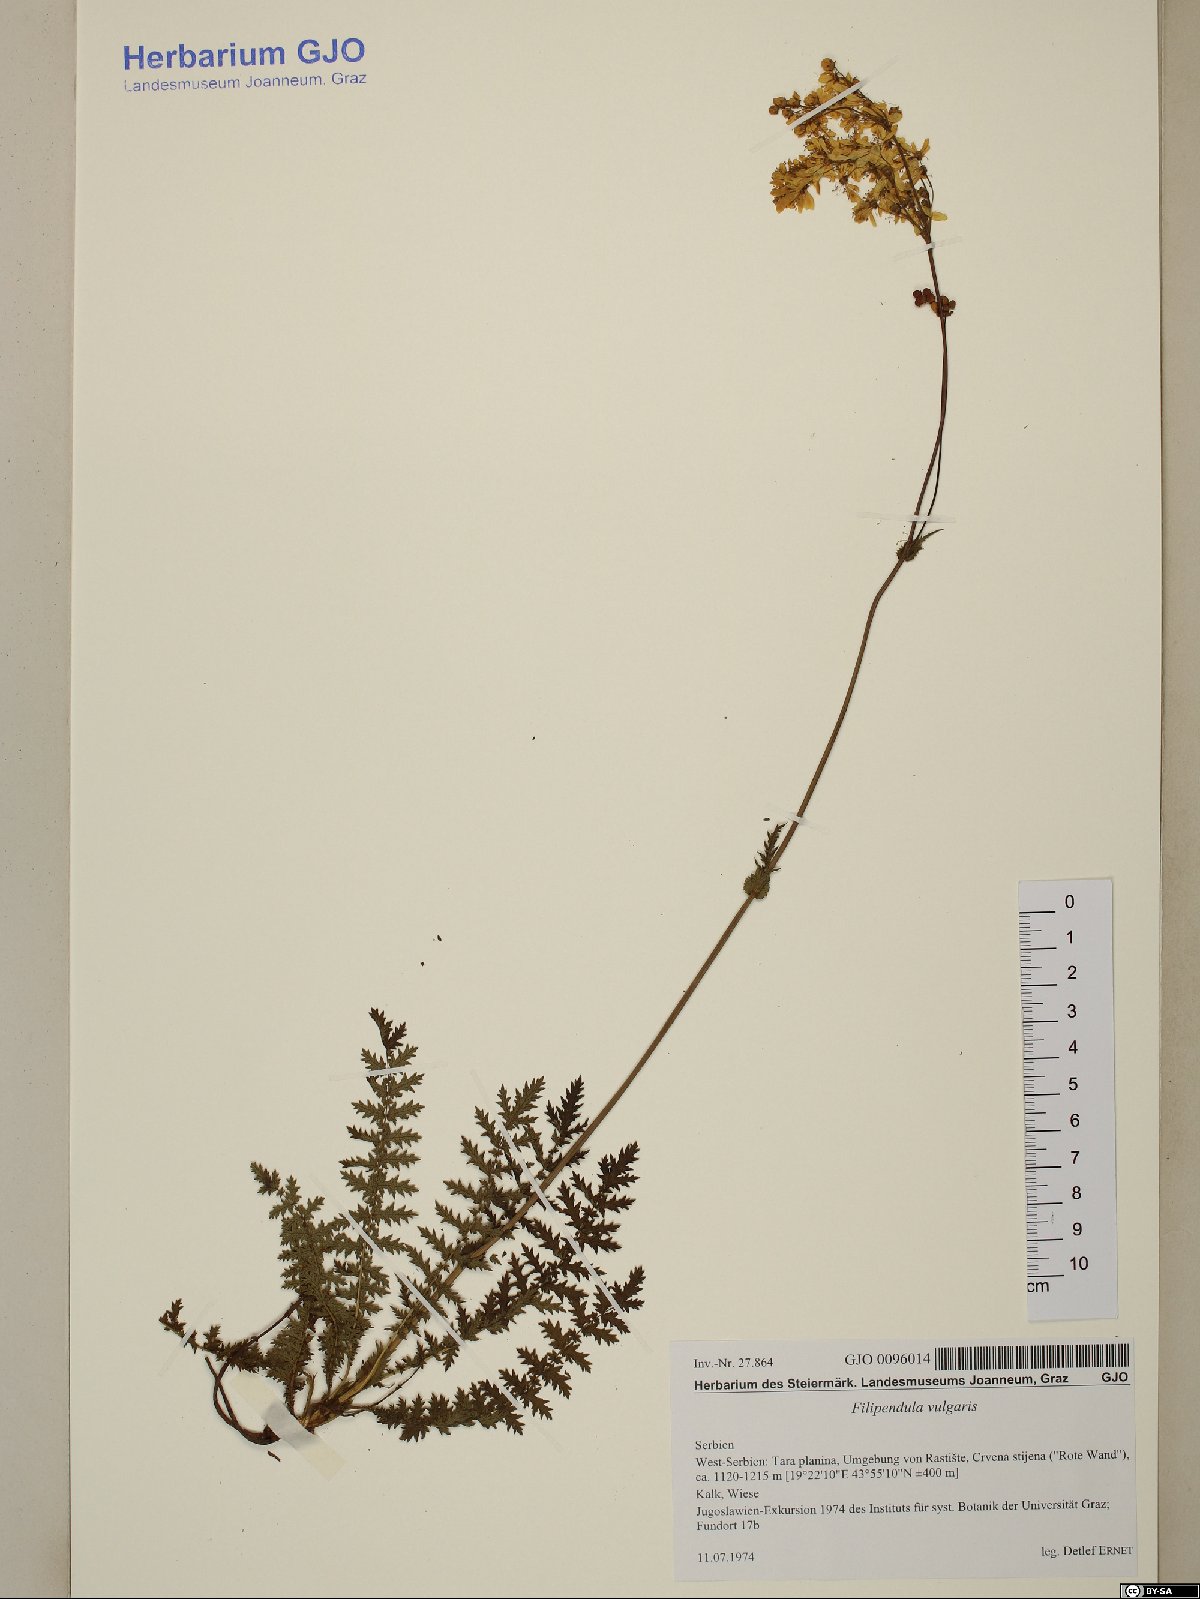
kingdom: Plantae
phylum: Tracheophyta
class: Magnoliopsida
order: Rosales
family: Rosaceae
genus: Filipendula
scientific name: Filipendula vulgaris
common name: Dropwort
